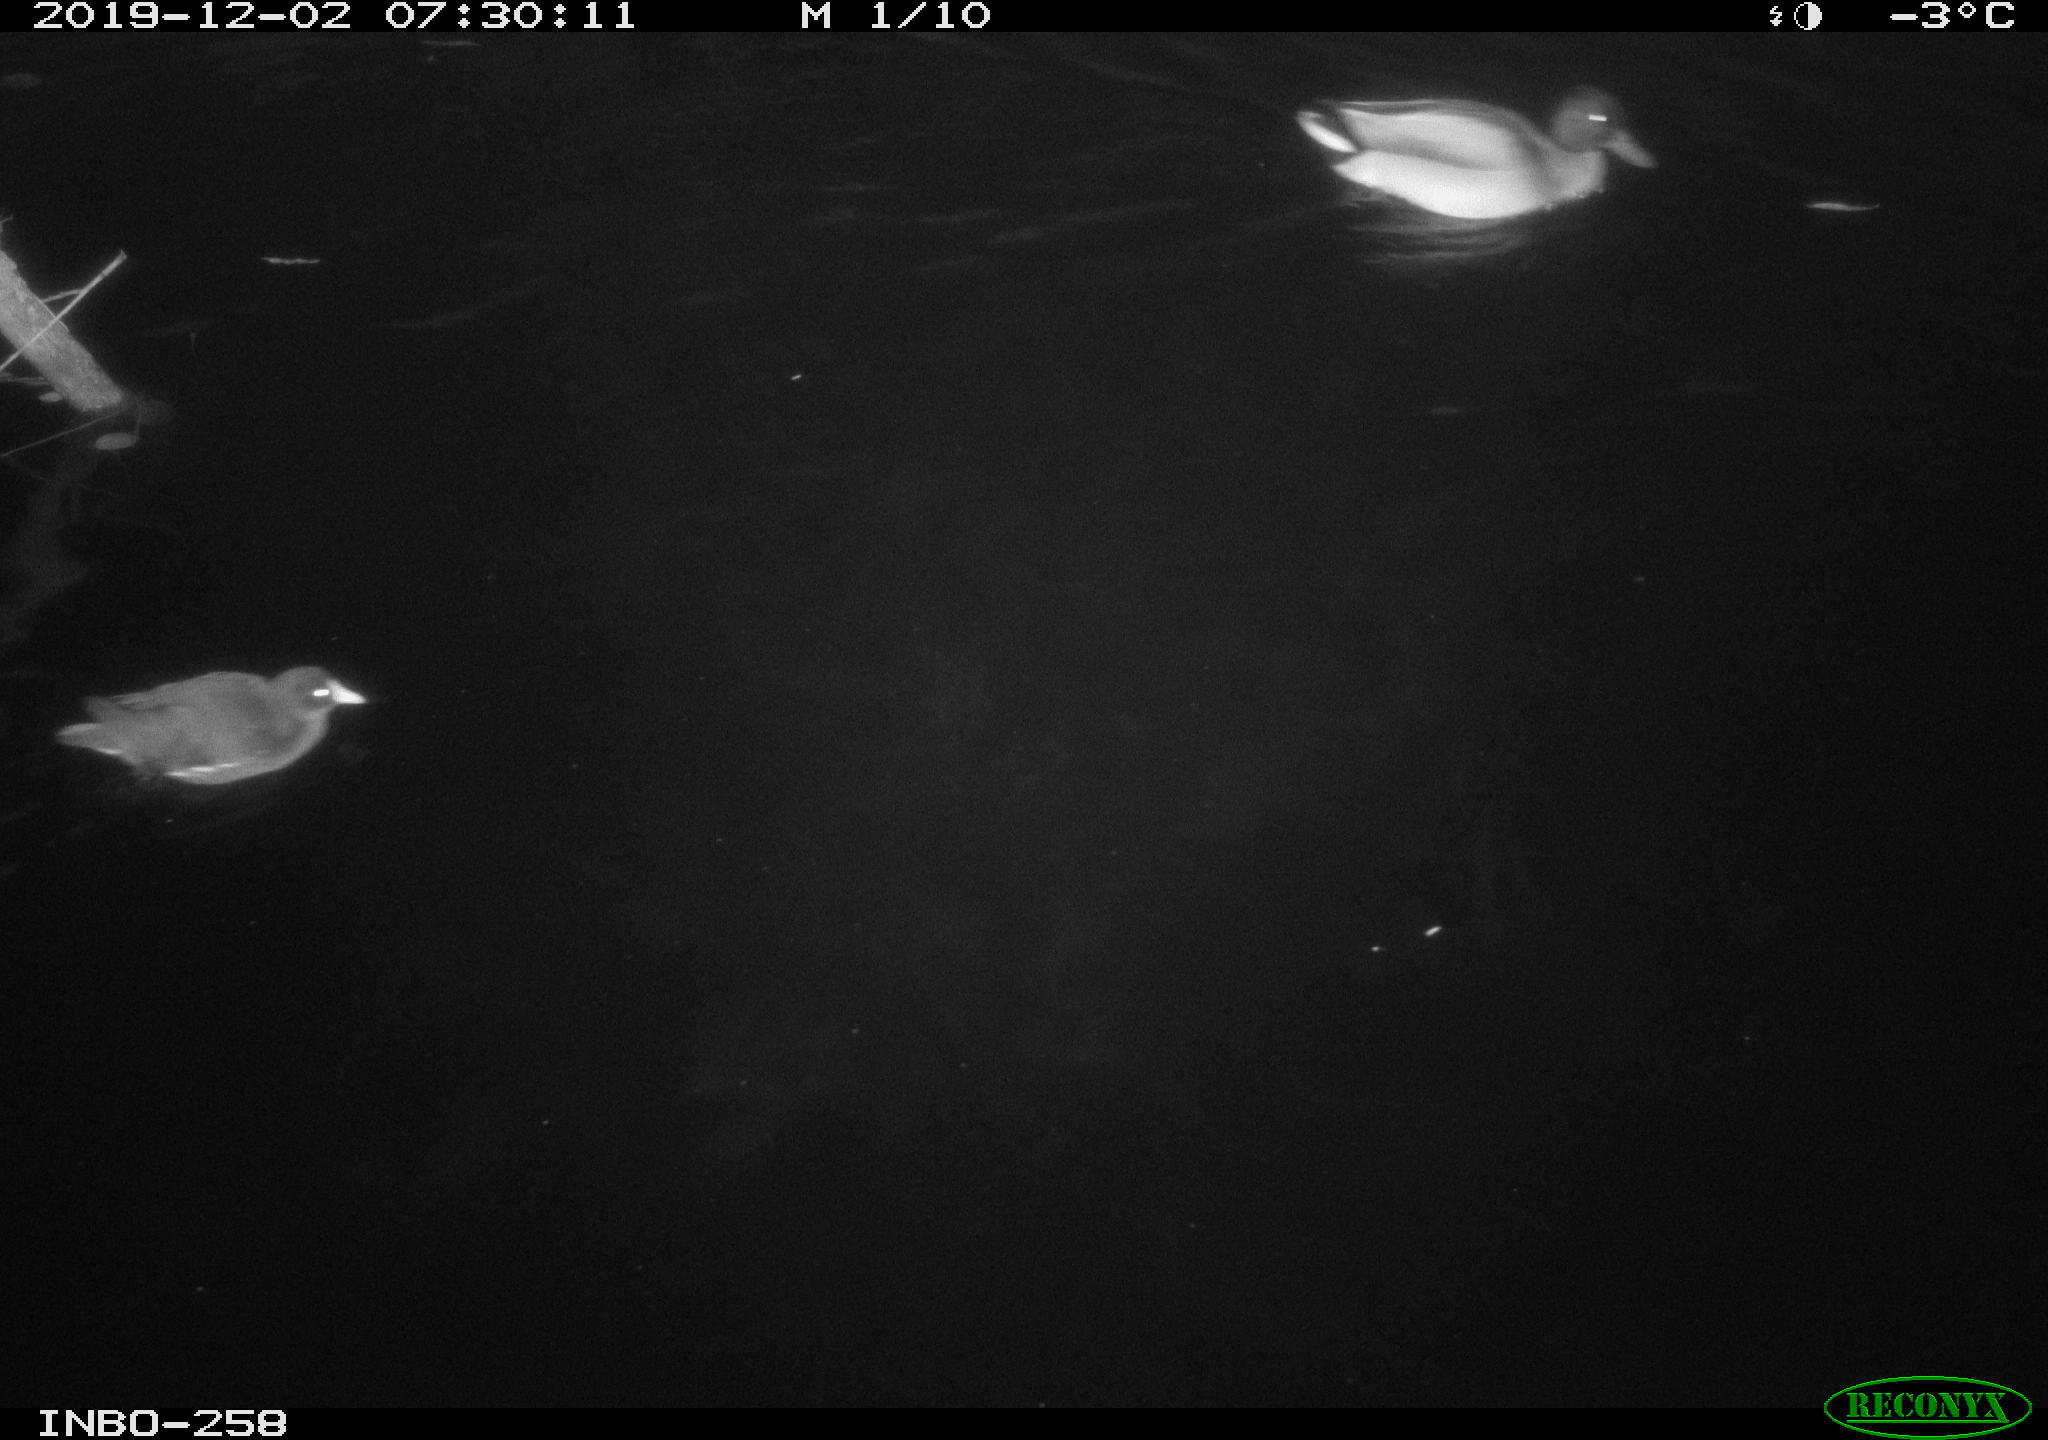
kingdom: Animalia
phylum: Chordata
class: Aves
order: Gruiformes
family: Rallidae
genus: Gallinula
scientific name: Gallinula chloropus
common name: Common moorhen
